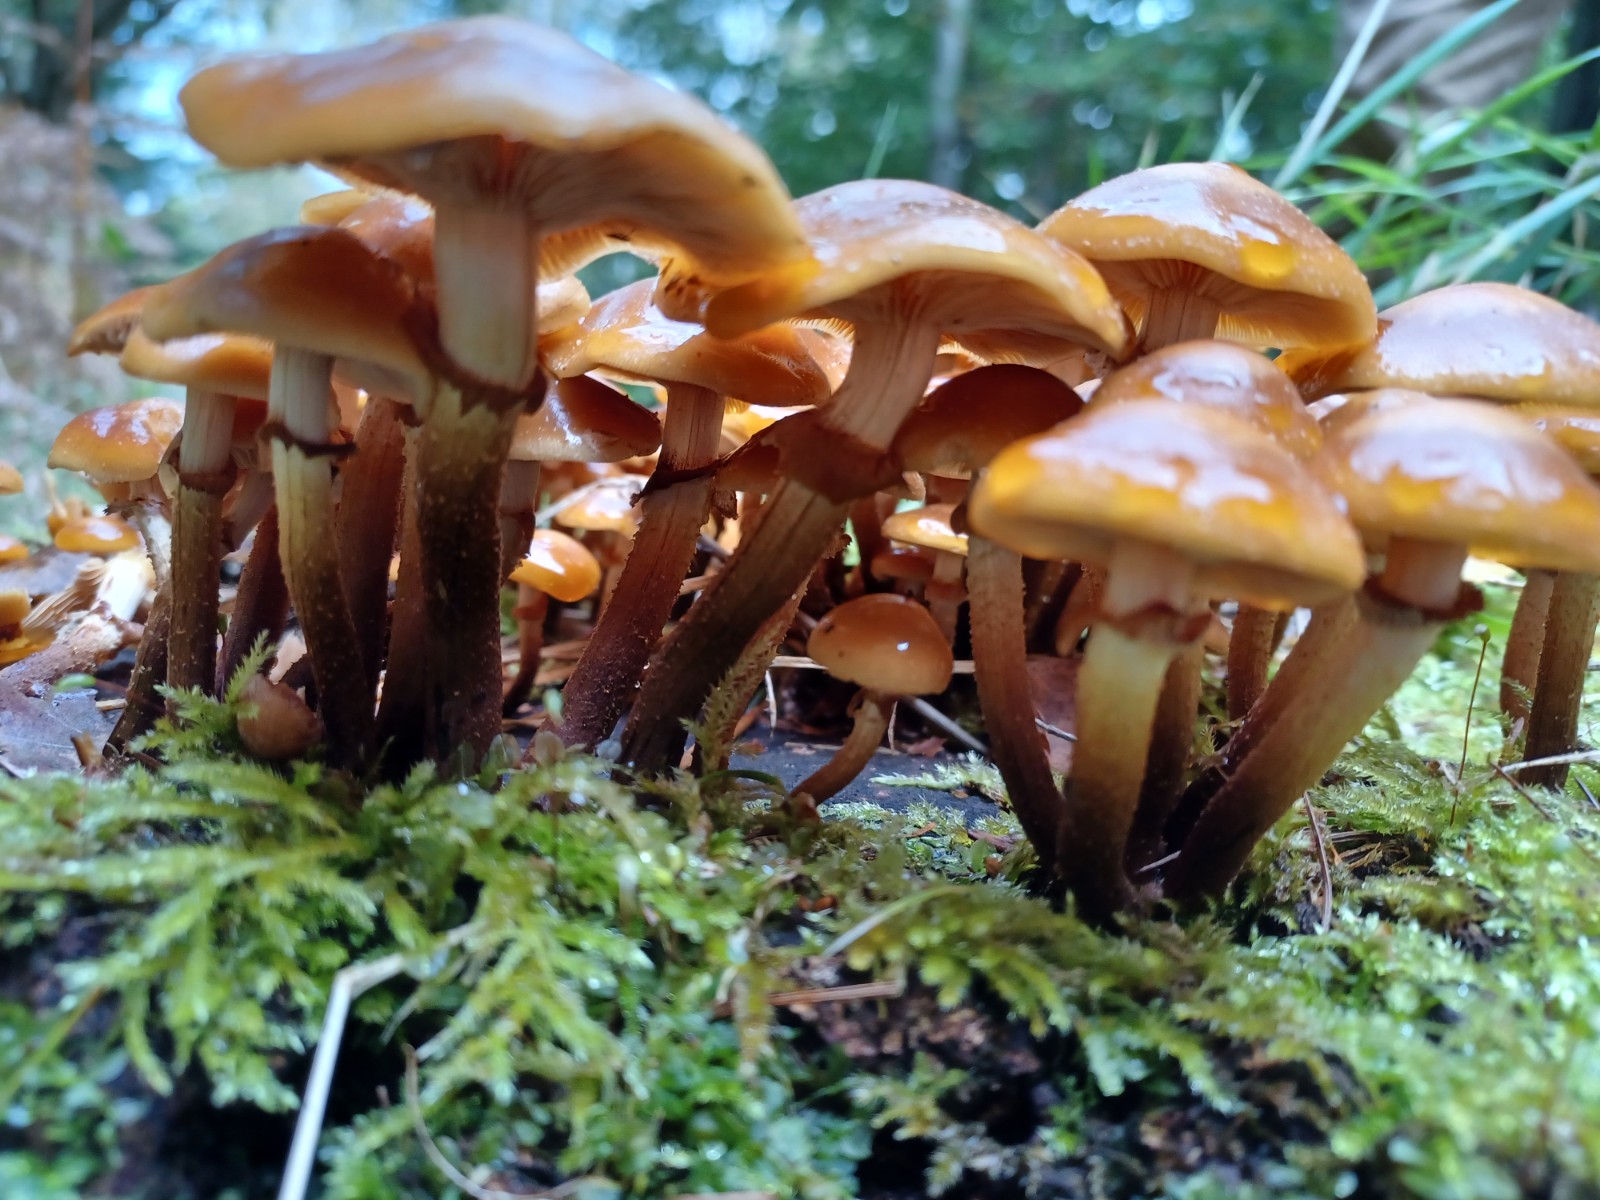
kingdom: Fungi
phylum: Basidiomycota
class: Agaricomycetes
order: Agaricales
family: Strophariaceae
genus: Kuehneromyces
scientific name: Kuehneromyces mutabilis
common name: foranderlig skælhat
